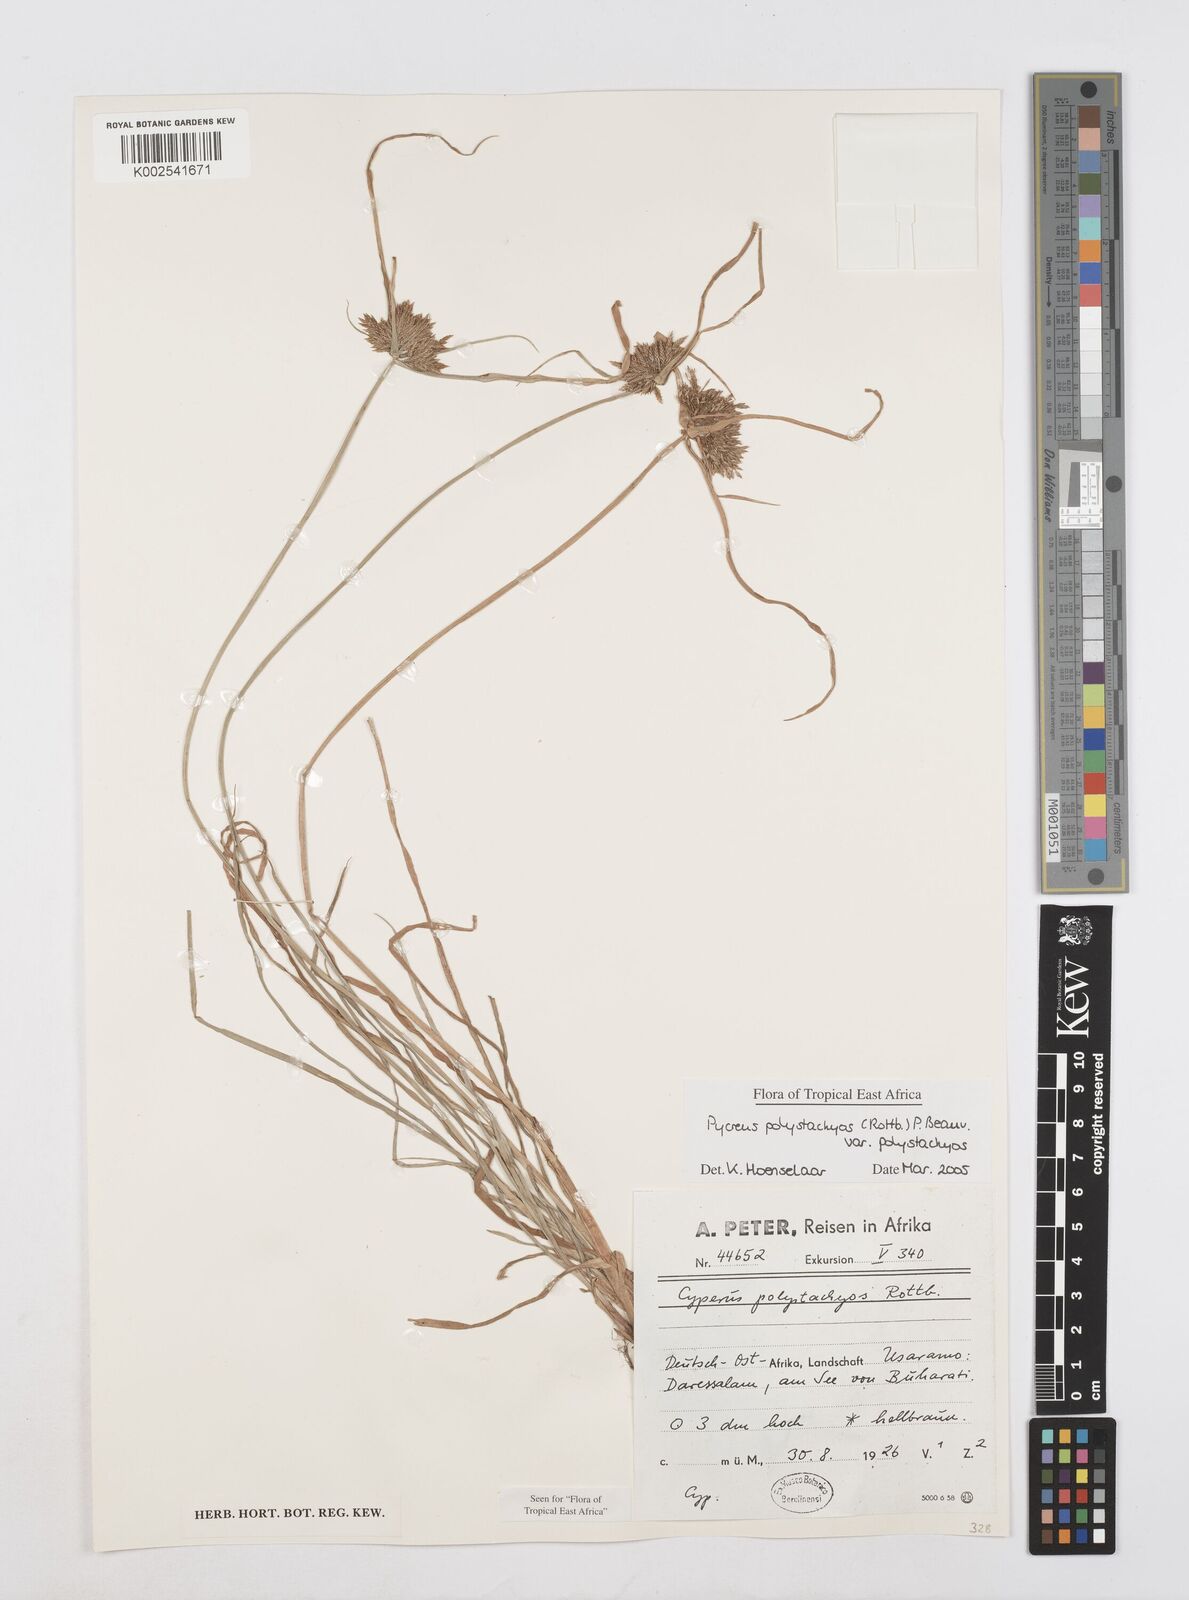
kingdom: Plantae
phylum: Tracheophyta
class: Liliopsida
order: Poales
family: Cyperaceae
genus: Cyperus
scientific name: Cyperus polystachyos
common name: Bunchy flat sedge
